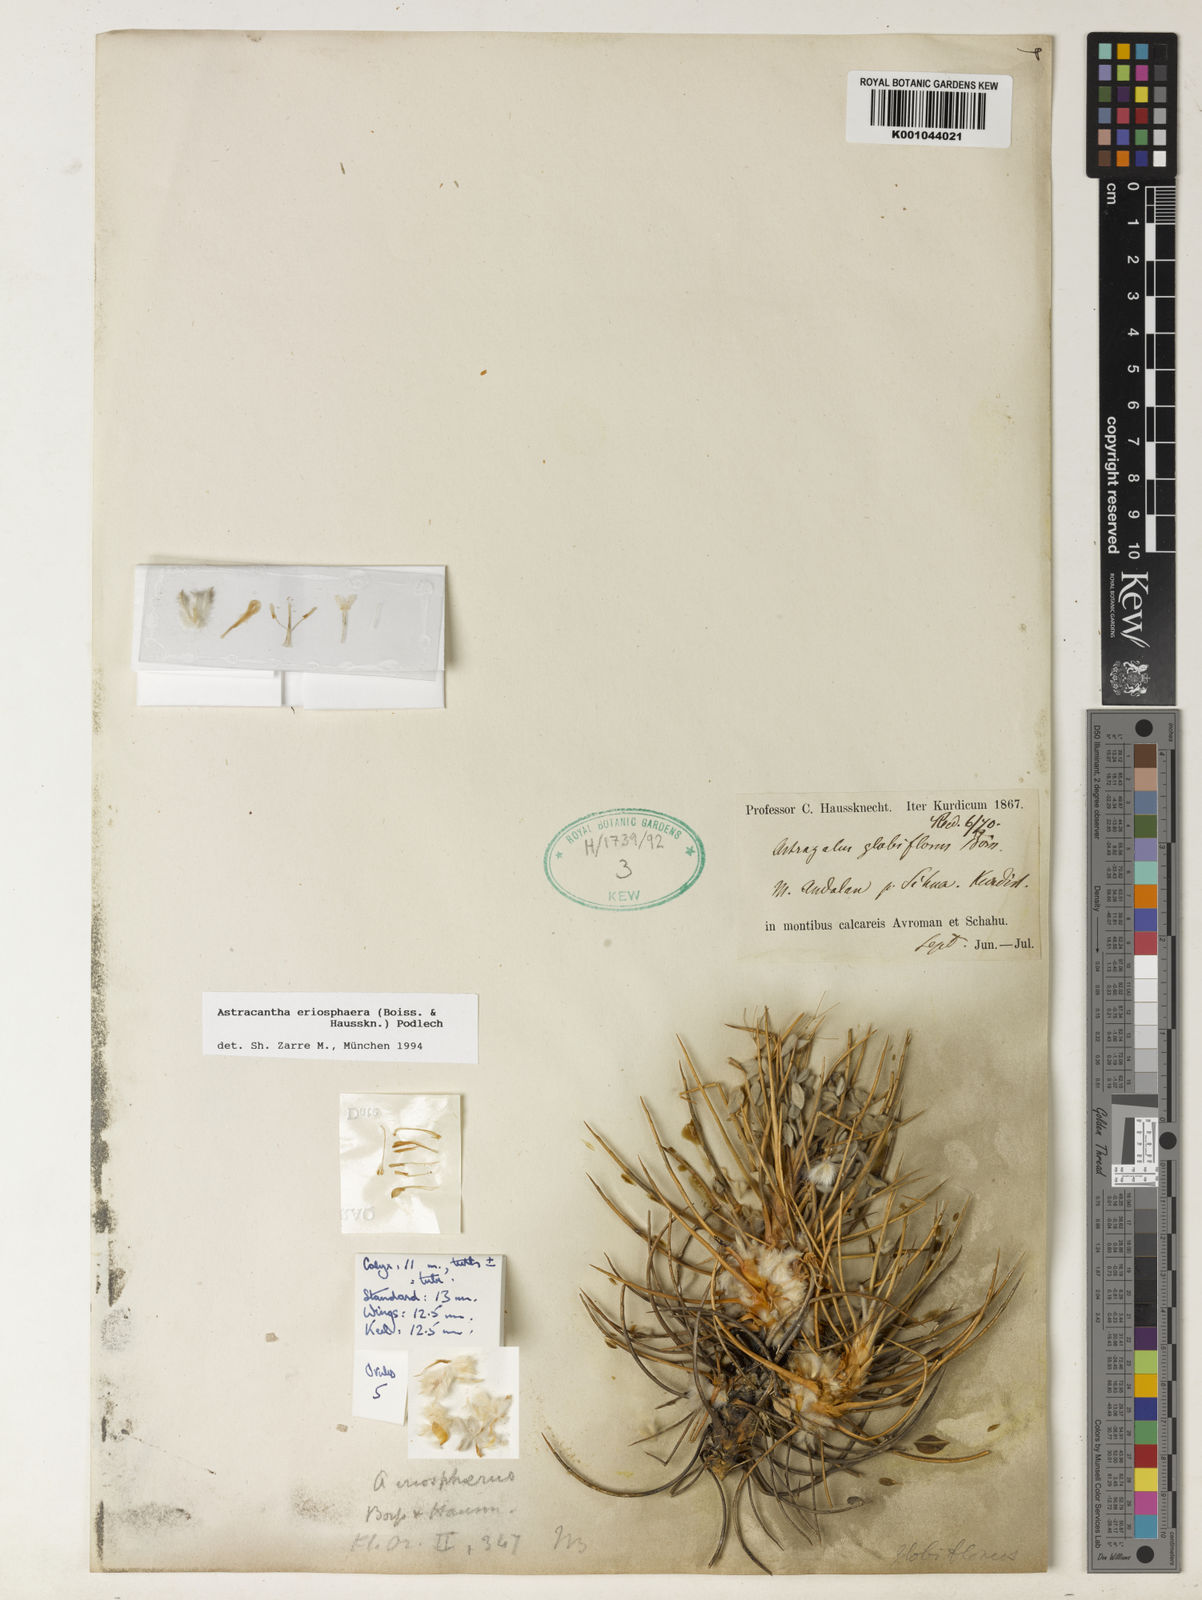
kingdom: Plantae
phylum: Tracheophyta
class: Magnoliopsida
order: Fabales
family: Fabaceae
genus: Astragalus
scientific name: Astragalus eriosphaerus
